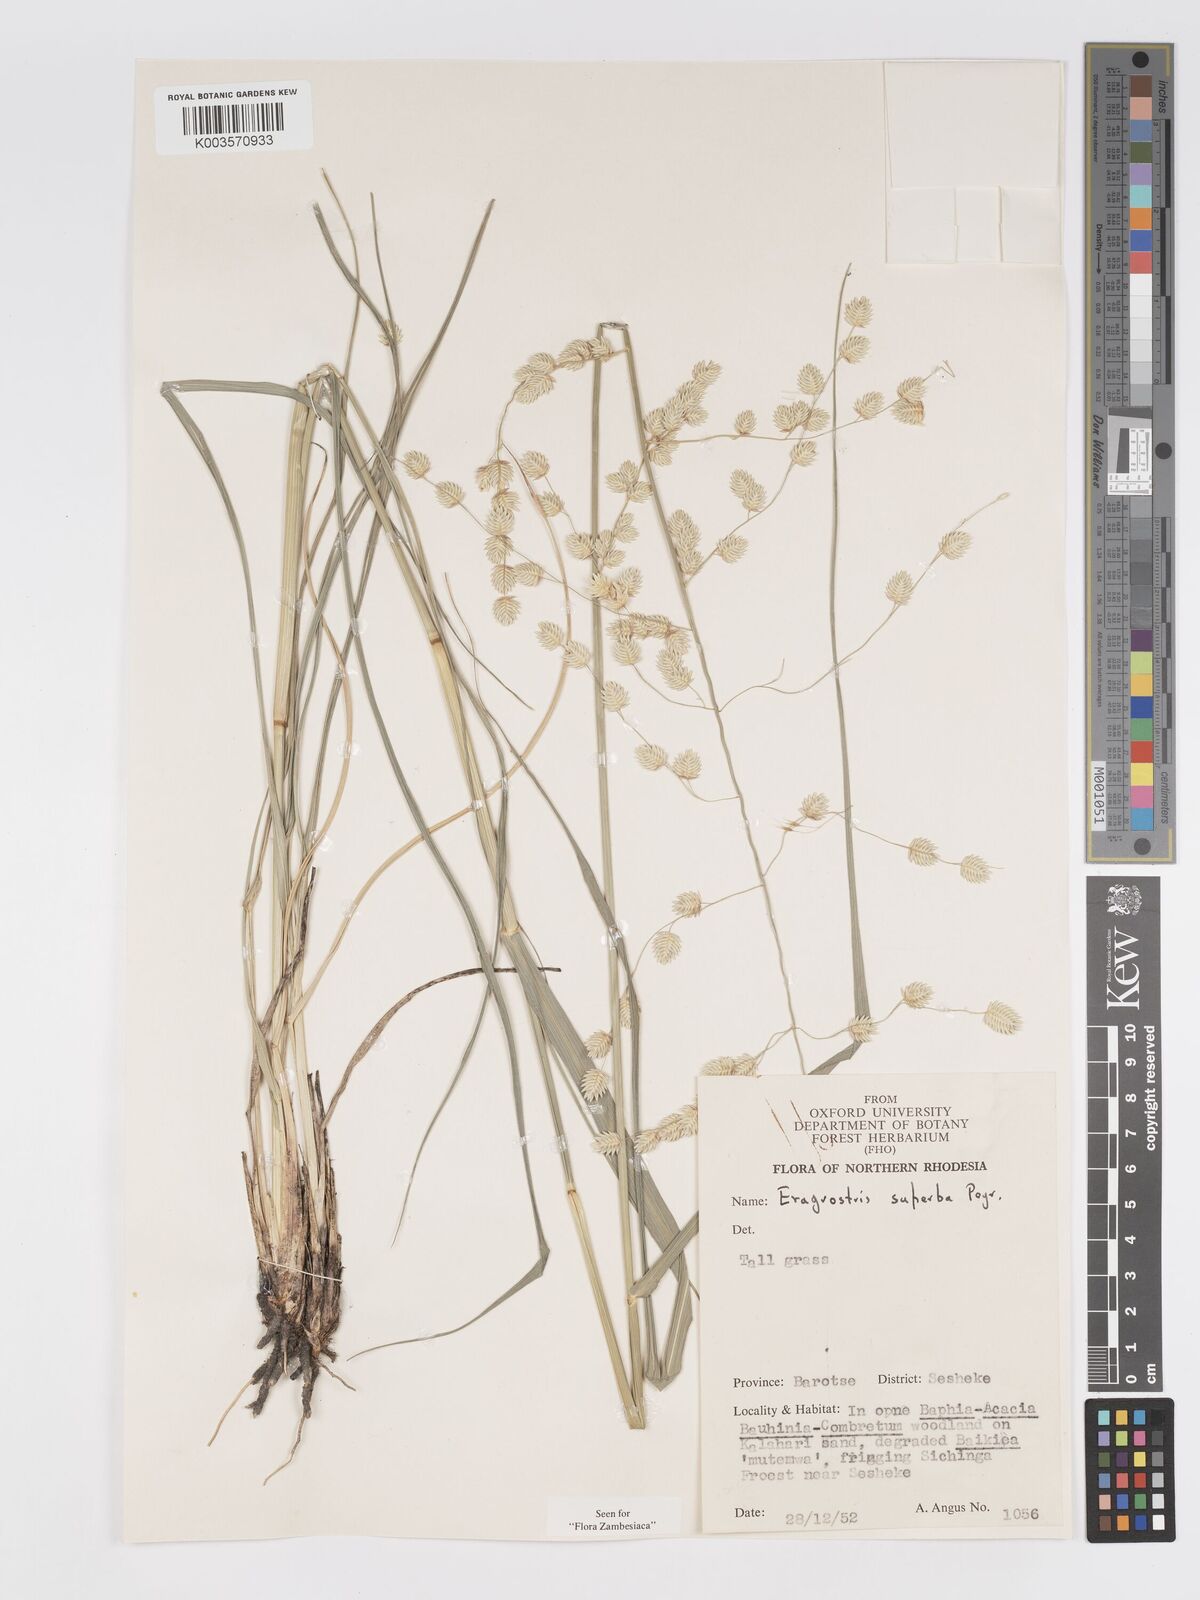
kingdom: Plantae
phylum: Tracheophyta
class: Liliopsida
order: Poales
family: Poaceae
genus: Eragrostis
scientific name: Eragrostis superba
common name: Wilman lovegrass
